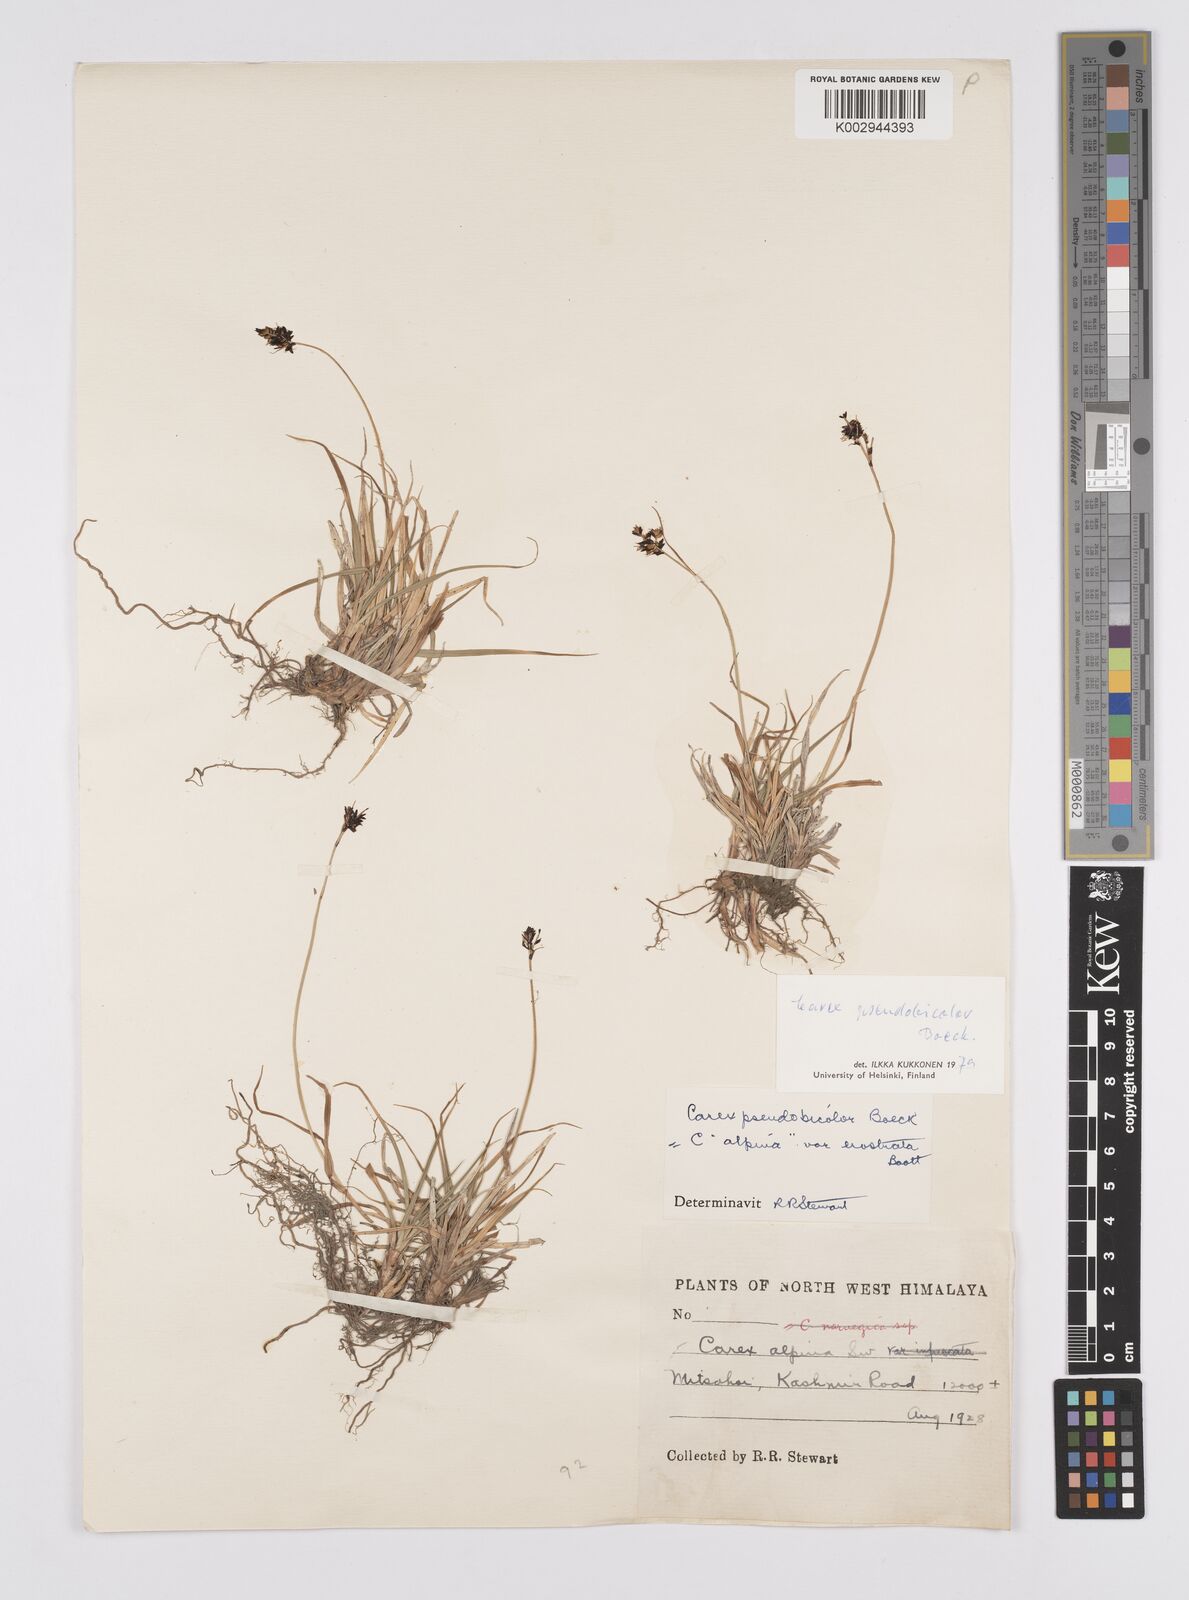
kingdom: Plantae
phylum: Tracheophyta
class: Liliopsida
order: Poales
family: Cyperaceae
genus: Carex
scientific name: Carex norvegica
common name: Close-headed alpine-sedge
